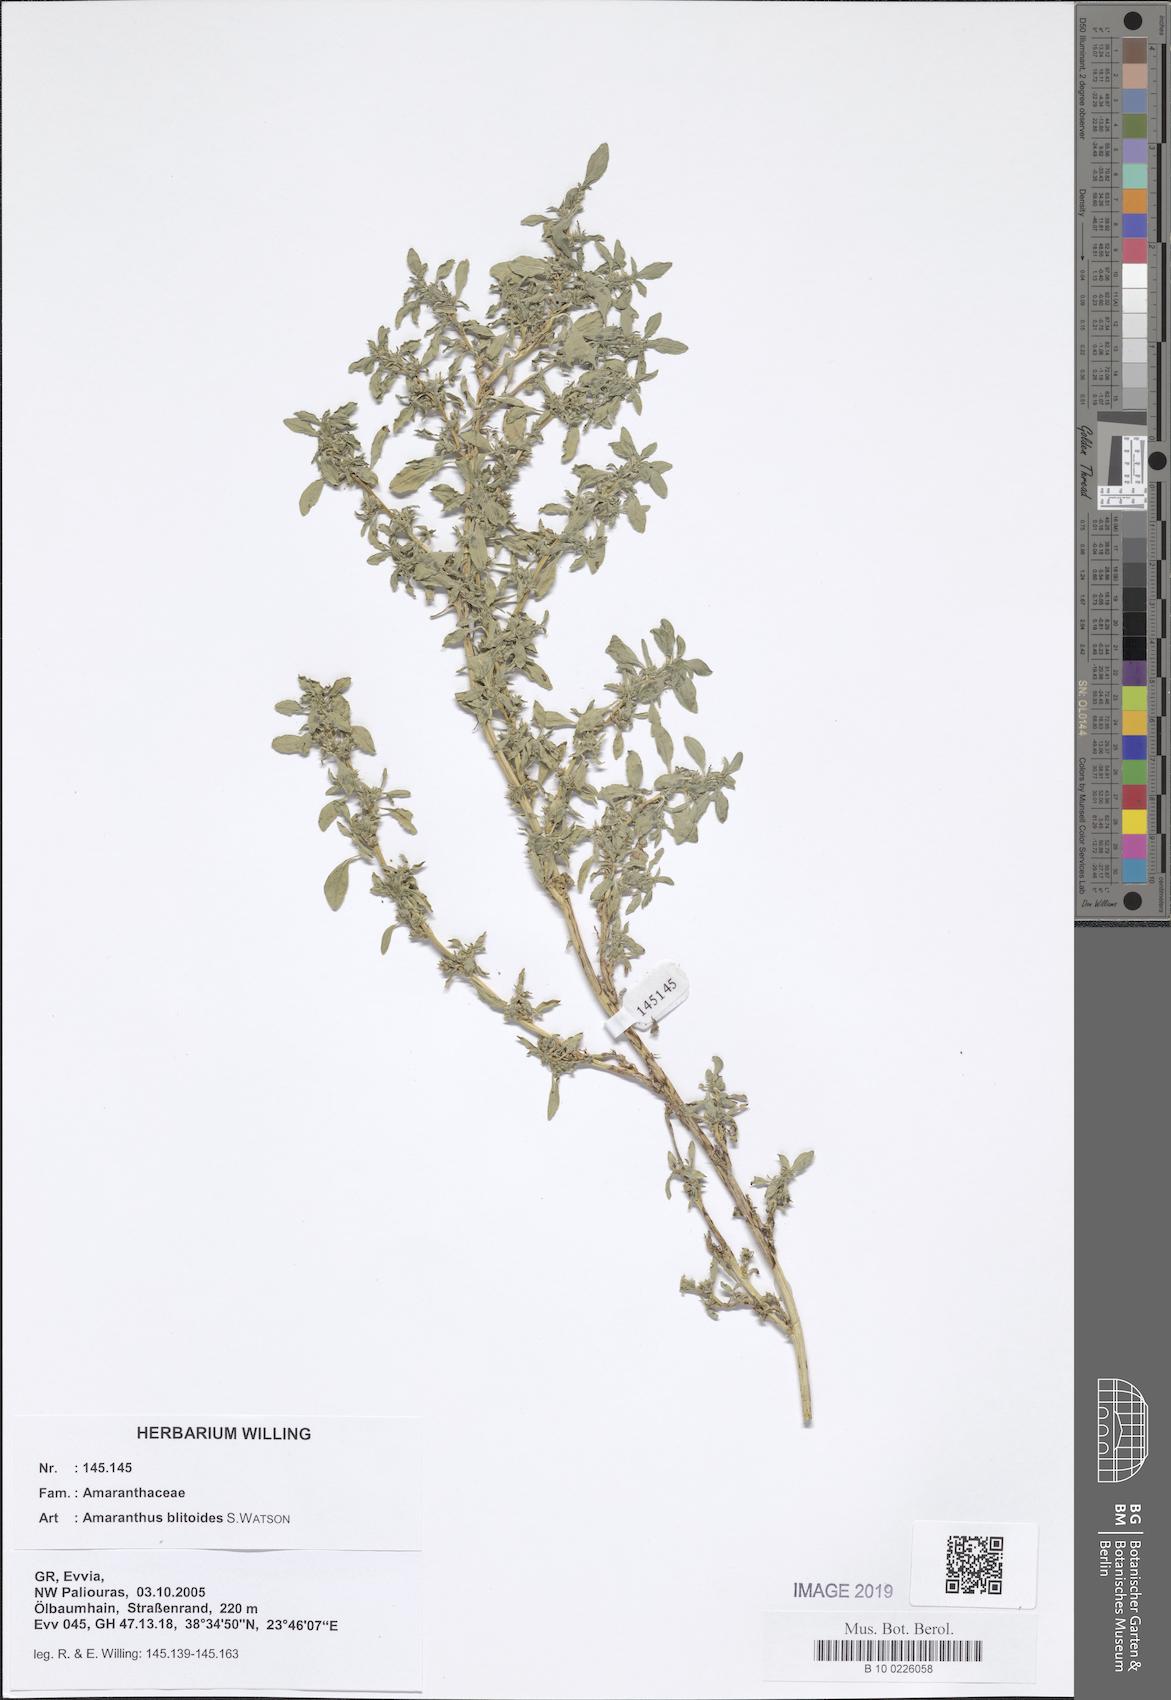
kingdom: Plantae
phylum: Tracheophyta
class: Magnoliopsida
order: Caryophyllales
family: Amaranthaceae
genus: Amaranthus
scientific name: Amaranthus blitoides
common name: Prostrate pigweed
